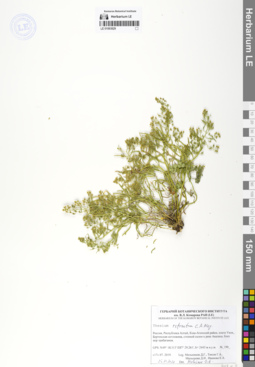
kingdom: Plantae
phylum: Tracheophyta
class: Magnoliopsida
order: Santalales
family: Thesiaceae
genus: Thesium
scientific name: Thesium refractum
